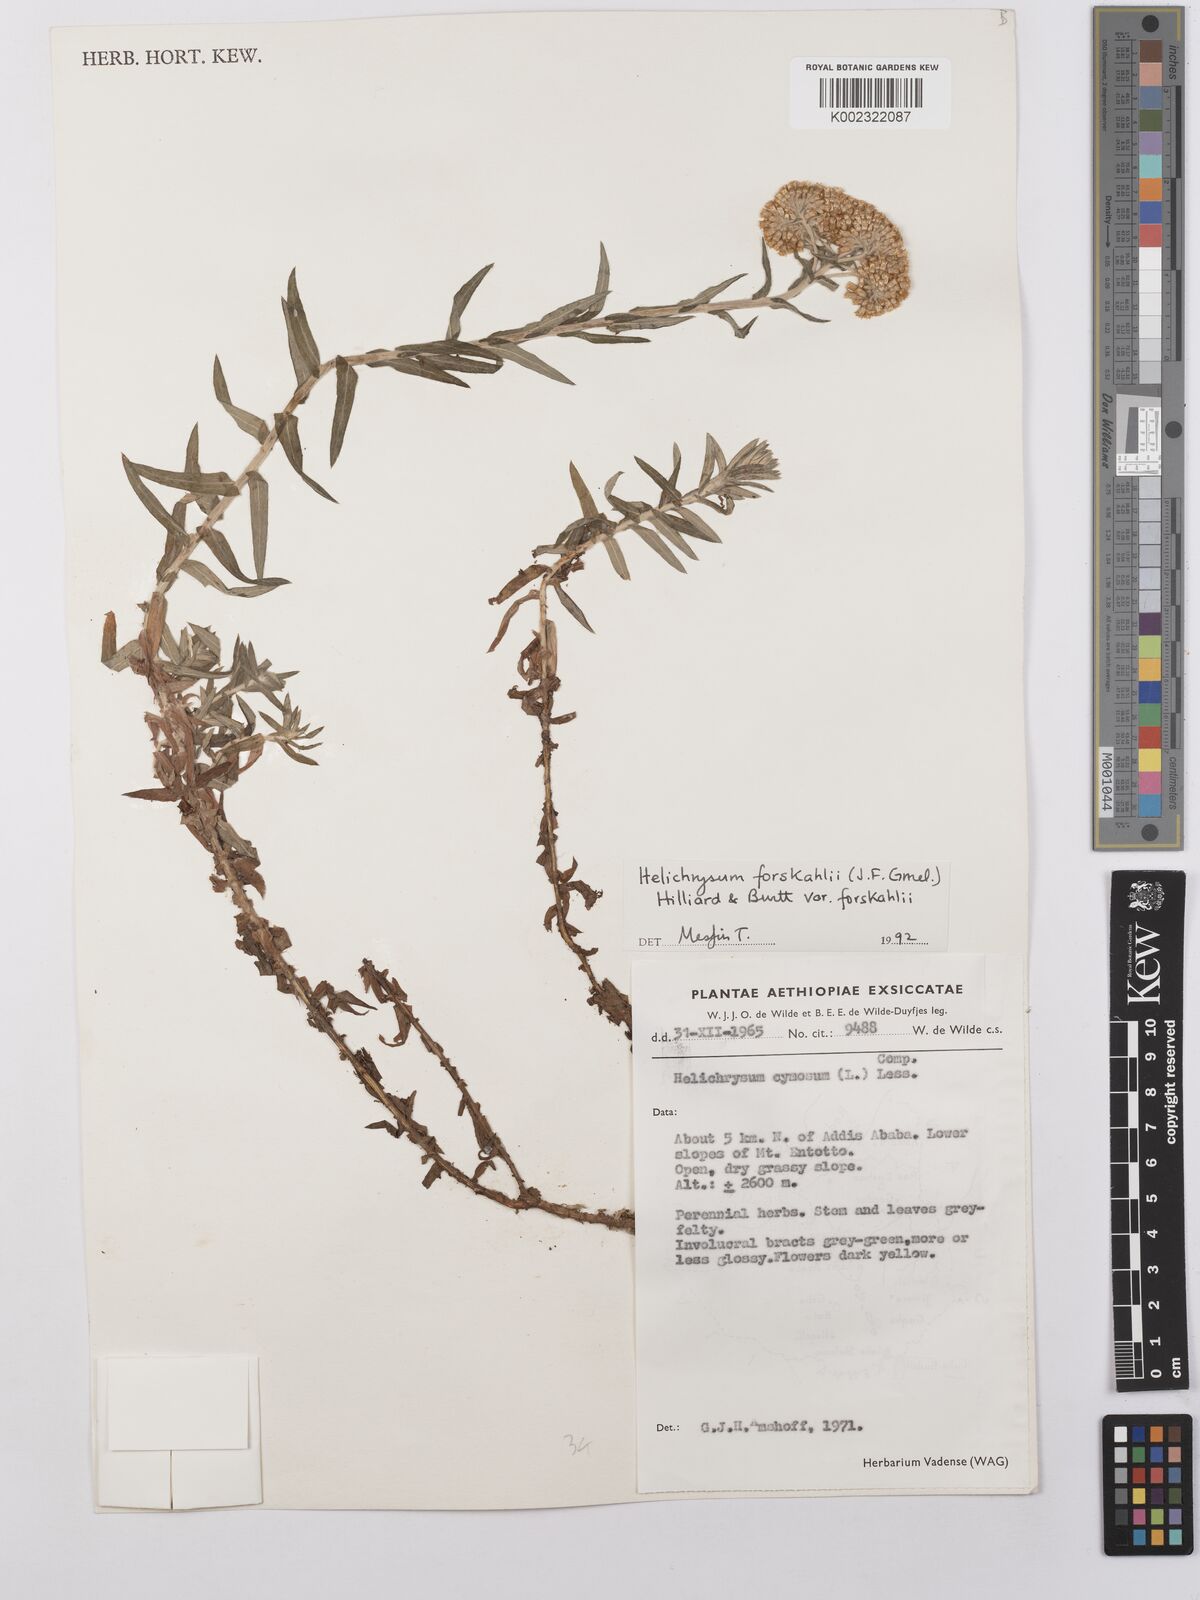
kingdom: Plantae
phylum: Tracheophyta
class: Magnoliopsida
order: Asterales
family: Asteraceae
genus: Helichrysum
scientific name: Helichrysum forskahlii
